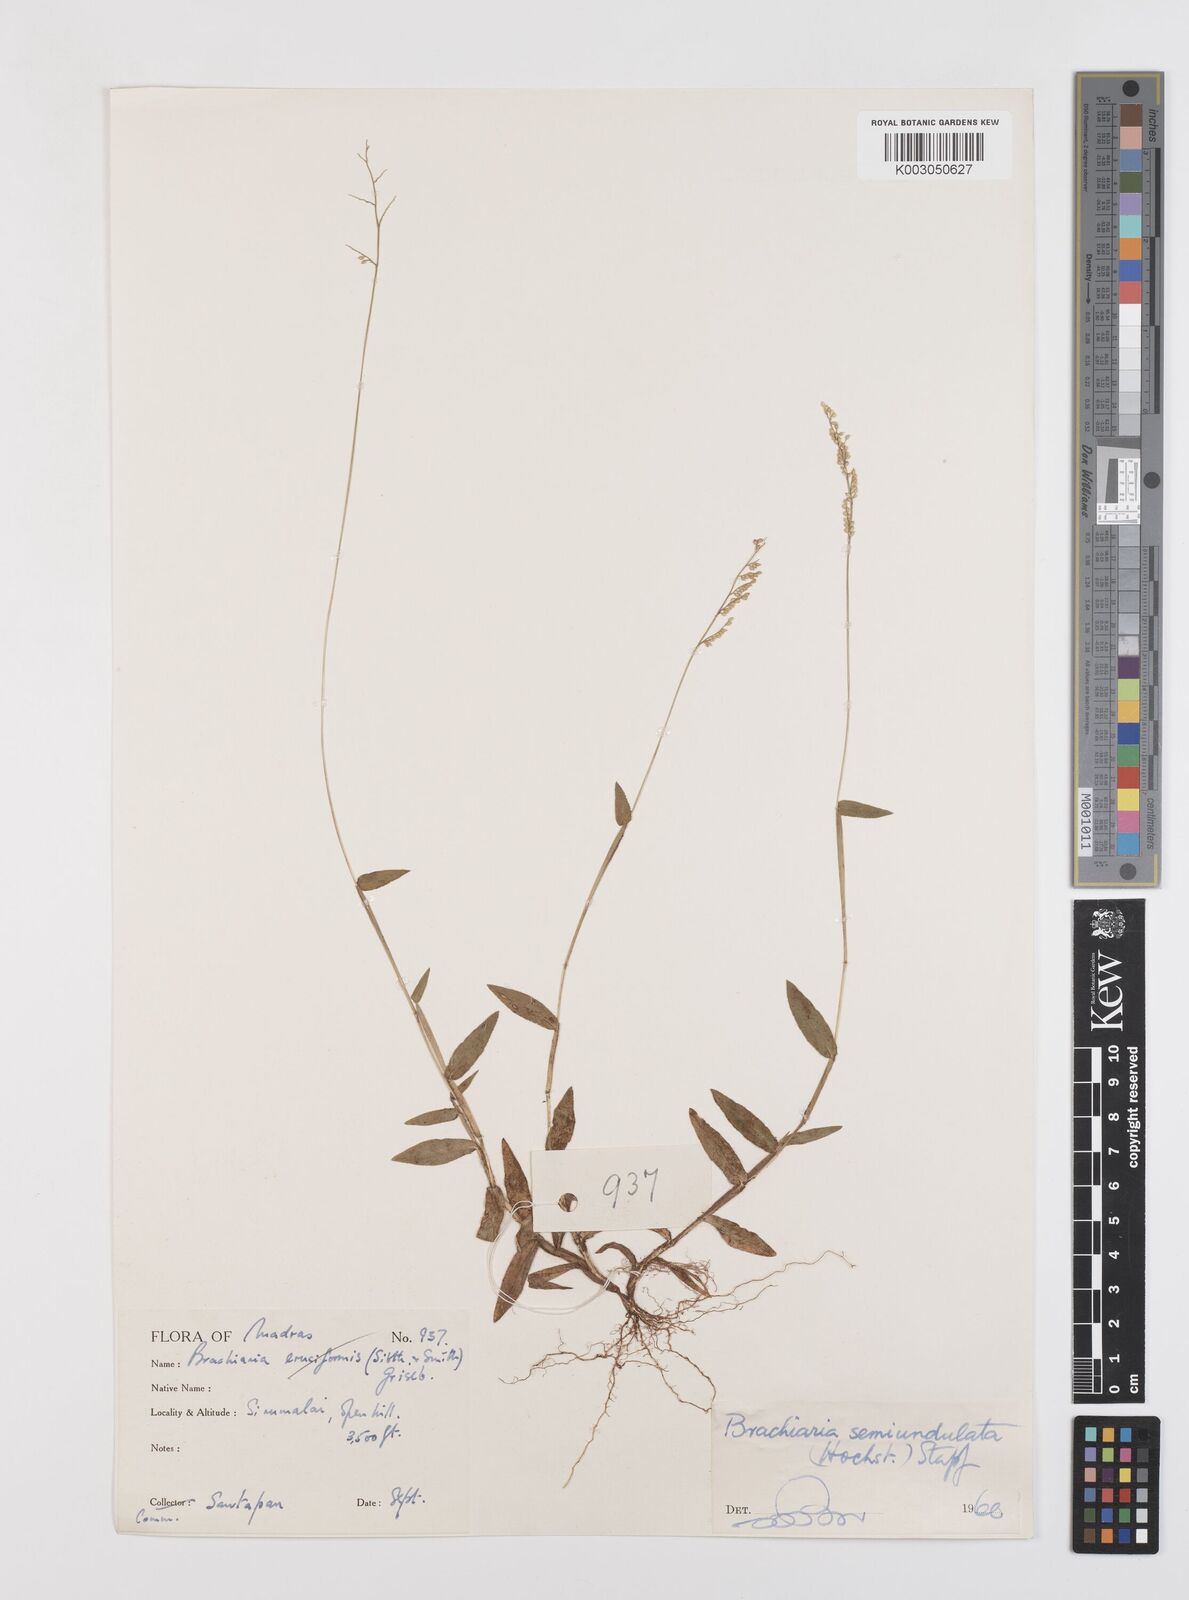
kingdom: Plantae
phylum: Tracheophyta
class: Liliopsida
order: Poales
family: Poaceae
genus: Urochloa
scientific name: Urochloa semiundulata
